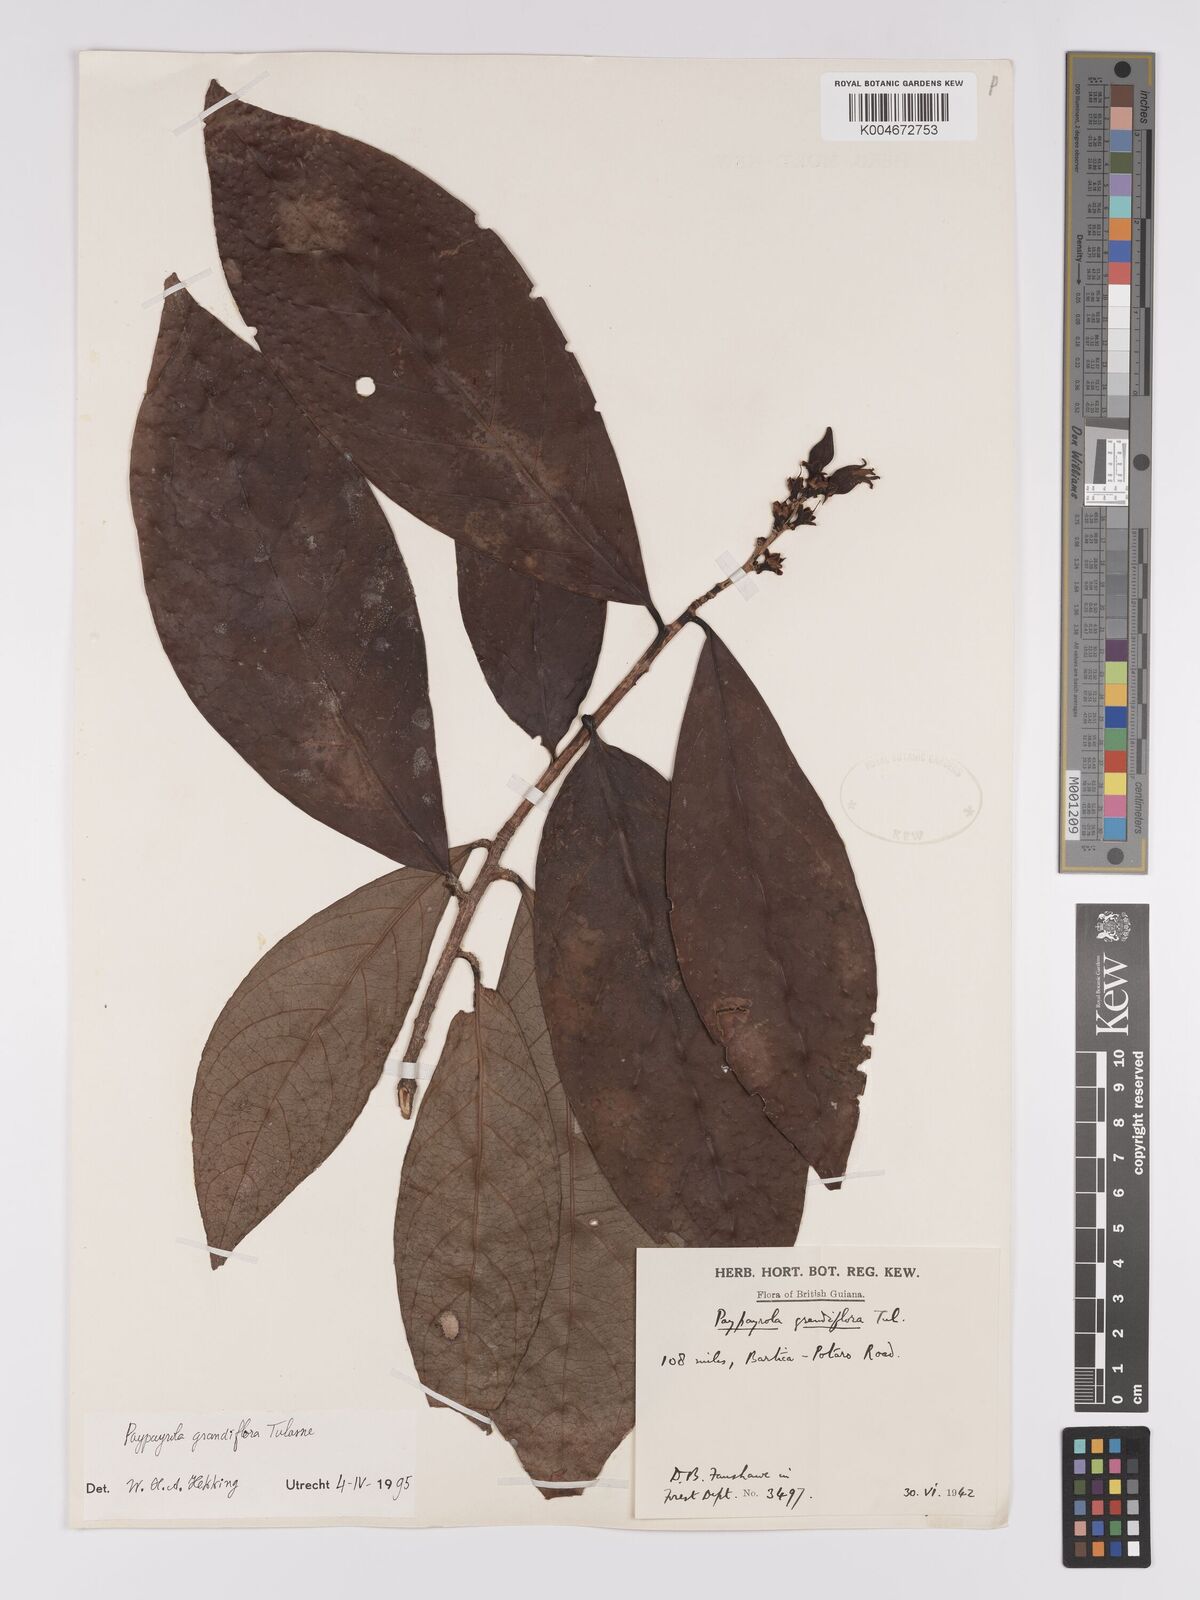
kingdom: Plantae
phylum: Tracheophyta
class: Magnoliopsida
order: Malpighiales
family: Violaceae
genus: Paypayrola
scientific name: Paypayrola grandiflora
